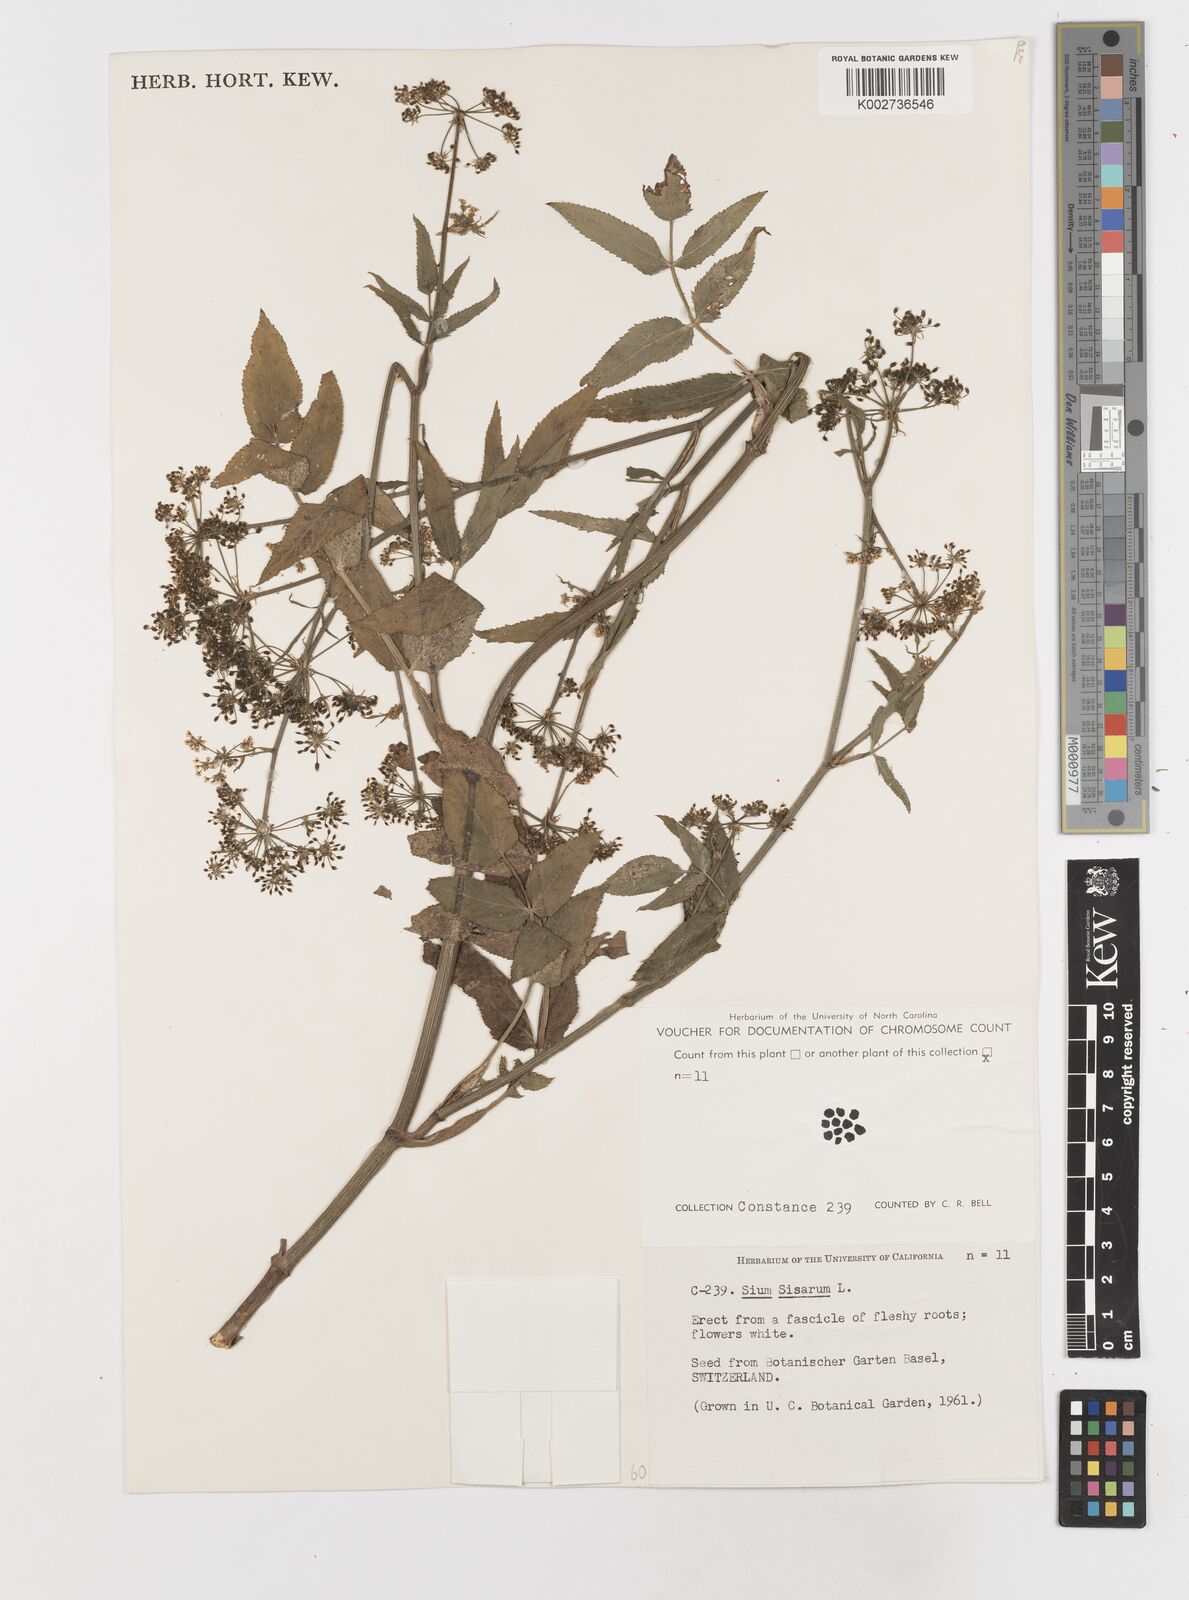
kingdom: Plantae
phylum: Tracheophyta
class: Magnoliopsida
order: Apiales
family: Apiaceae
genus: Sium
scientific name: Sium sisarum
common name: Skirret
